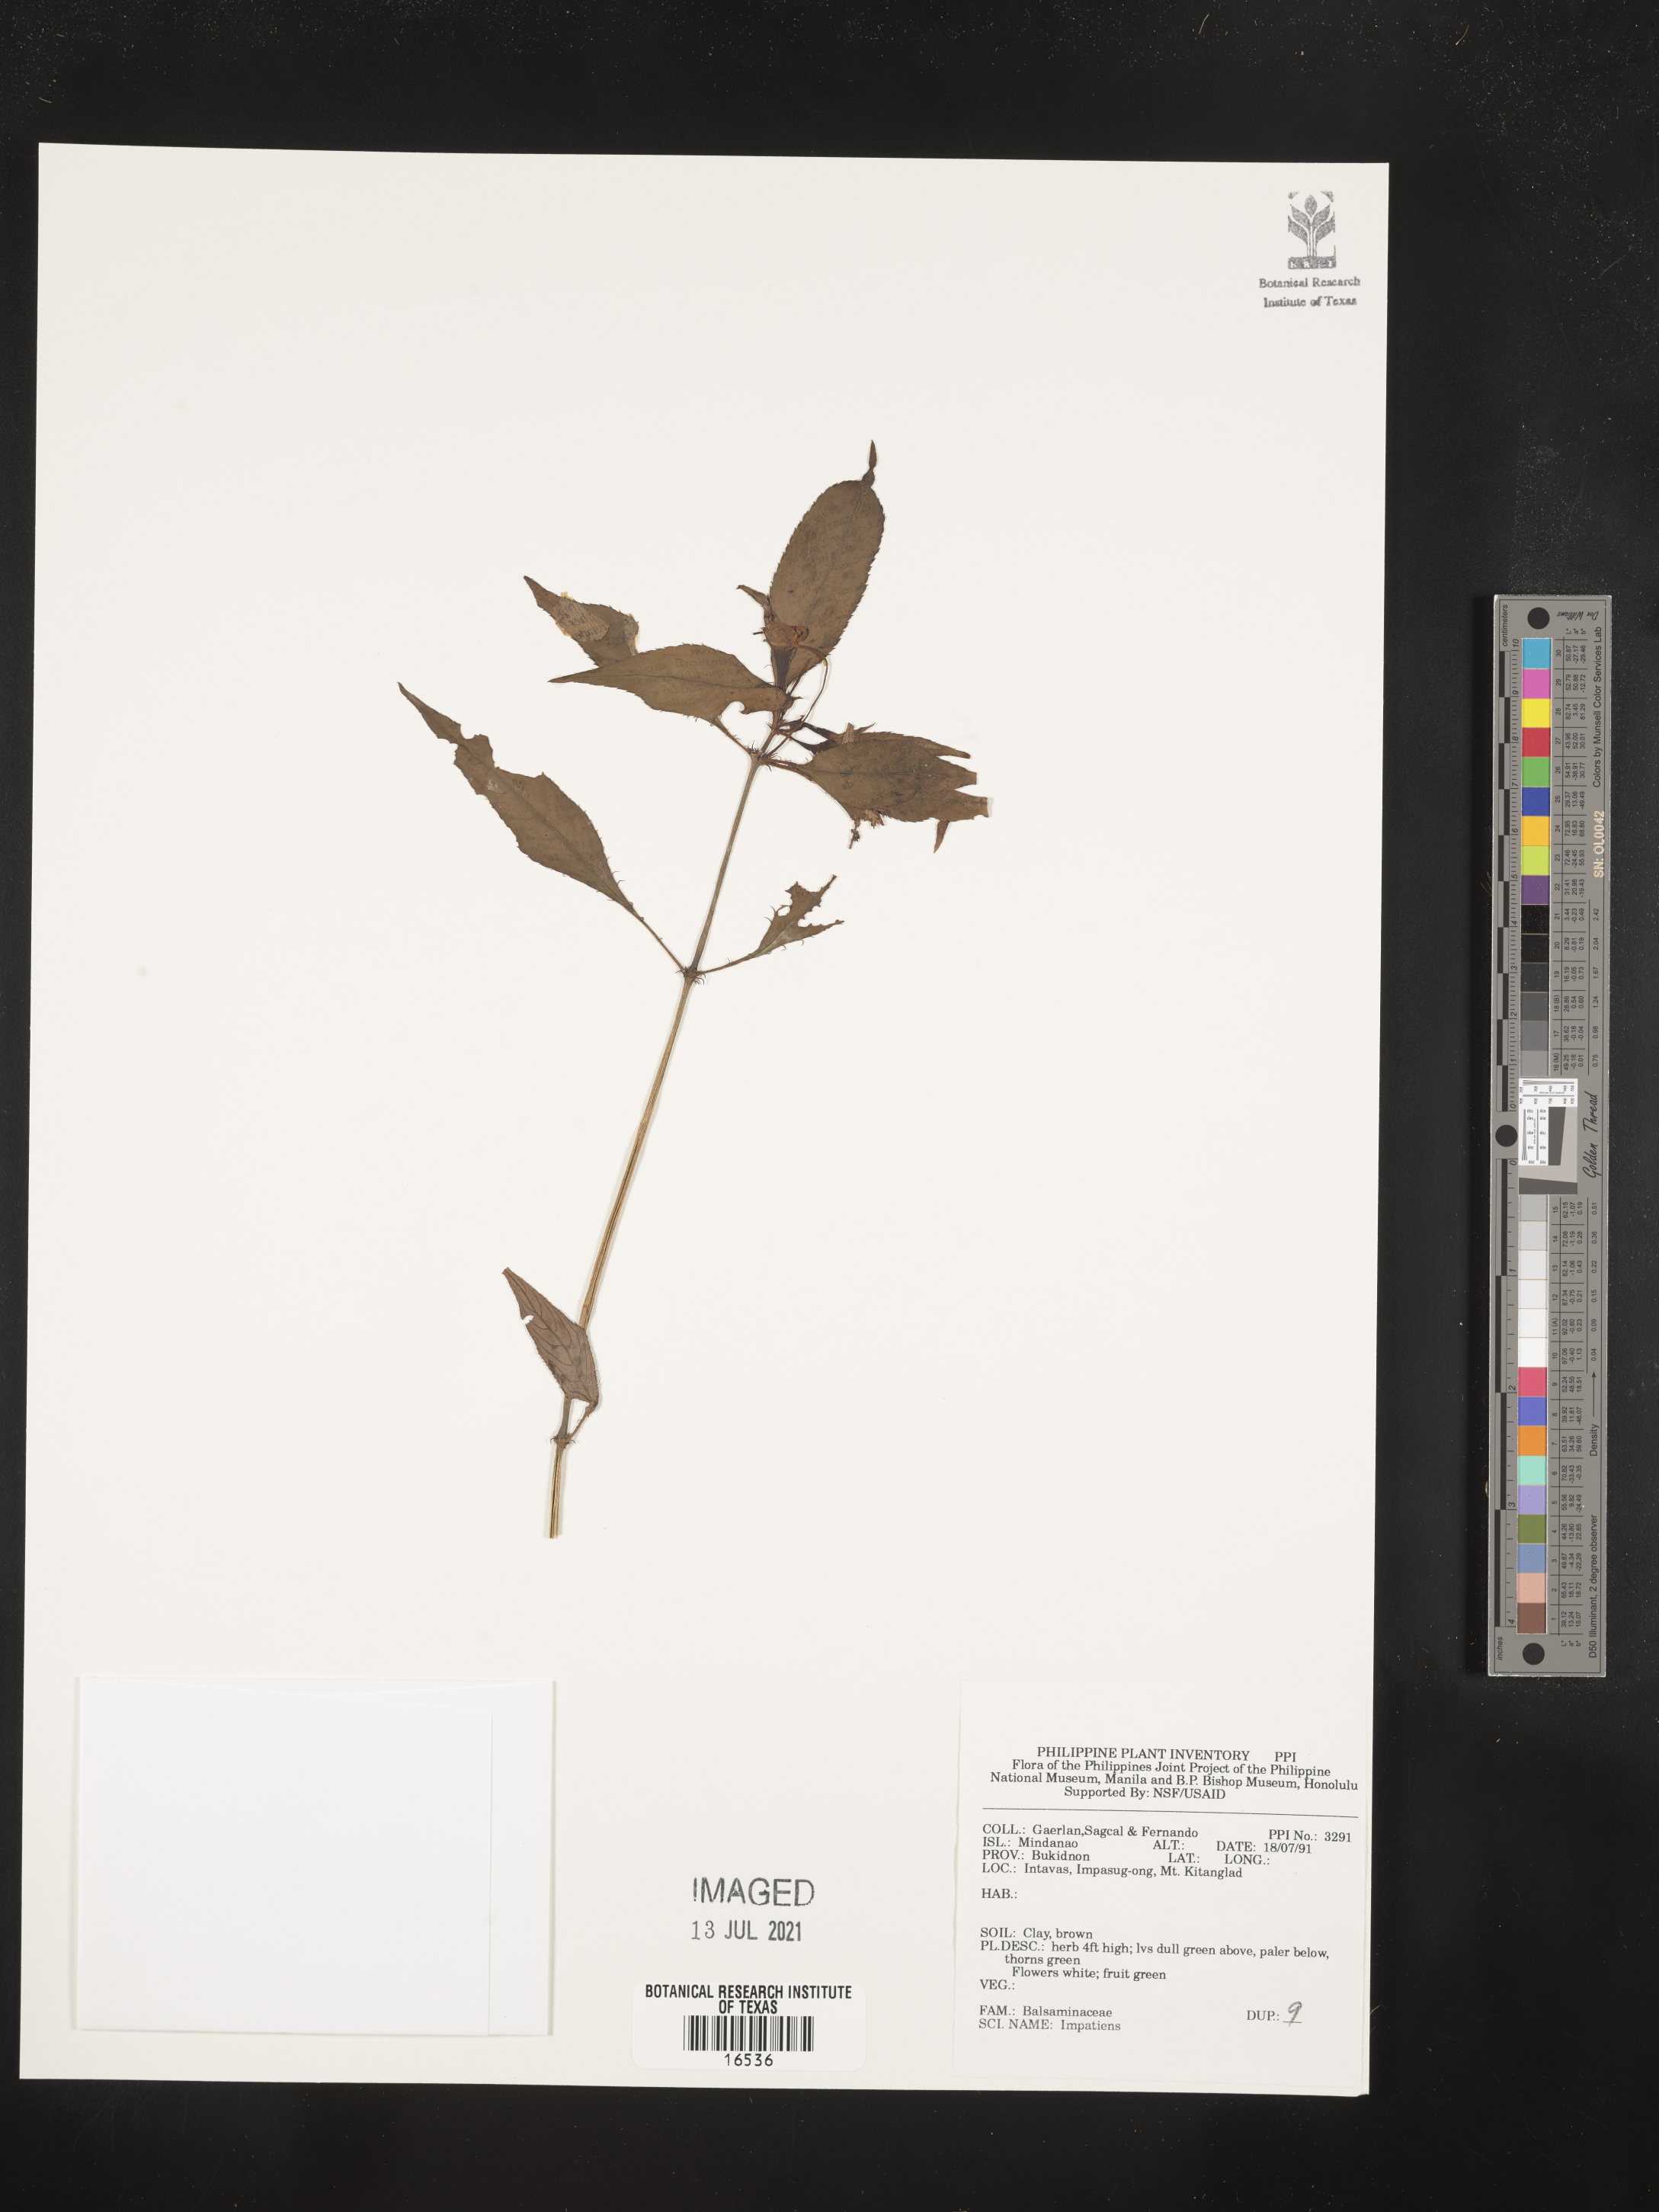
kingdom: Plantae
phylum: Tracheophyta
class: Magnoliopsida
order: Ericales
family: Balsaminaceae
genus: Impatiens
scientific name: Impatiens
